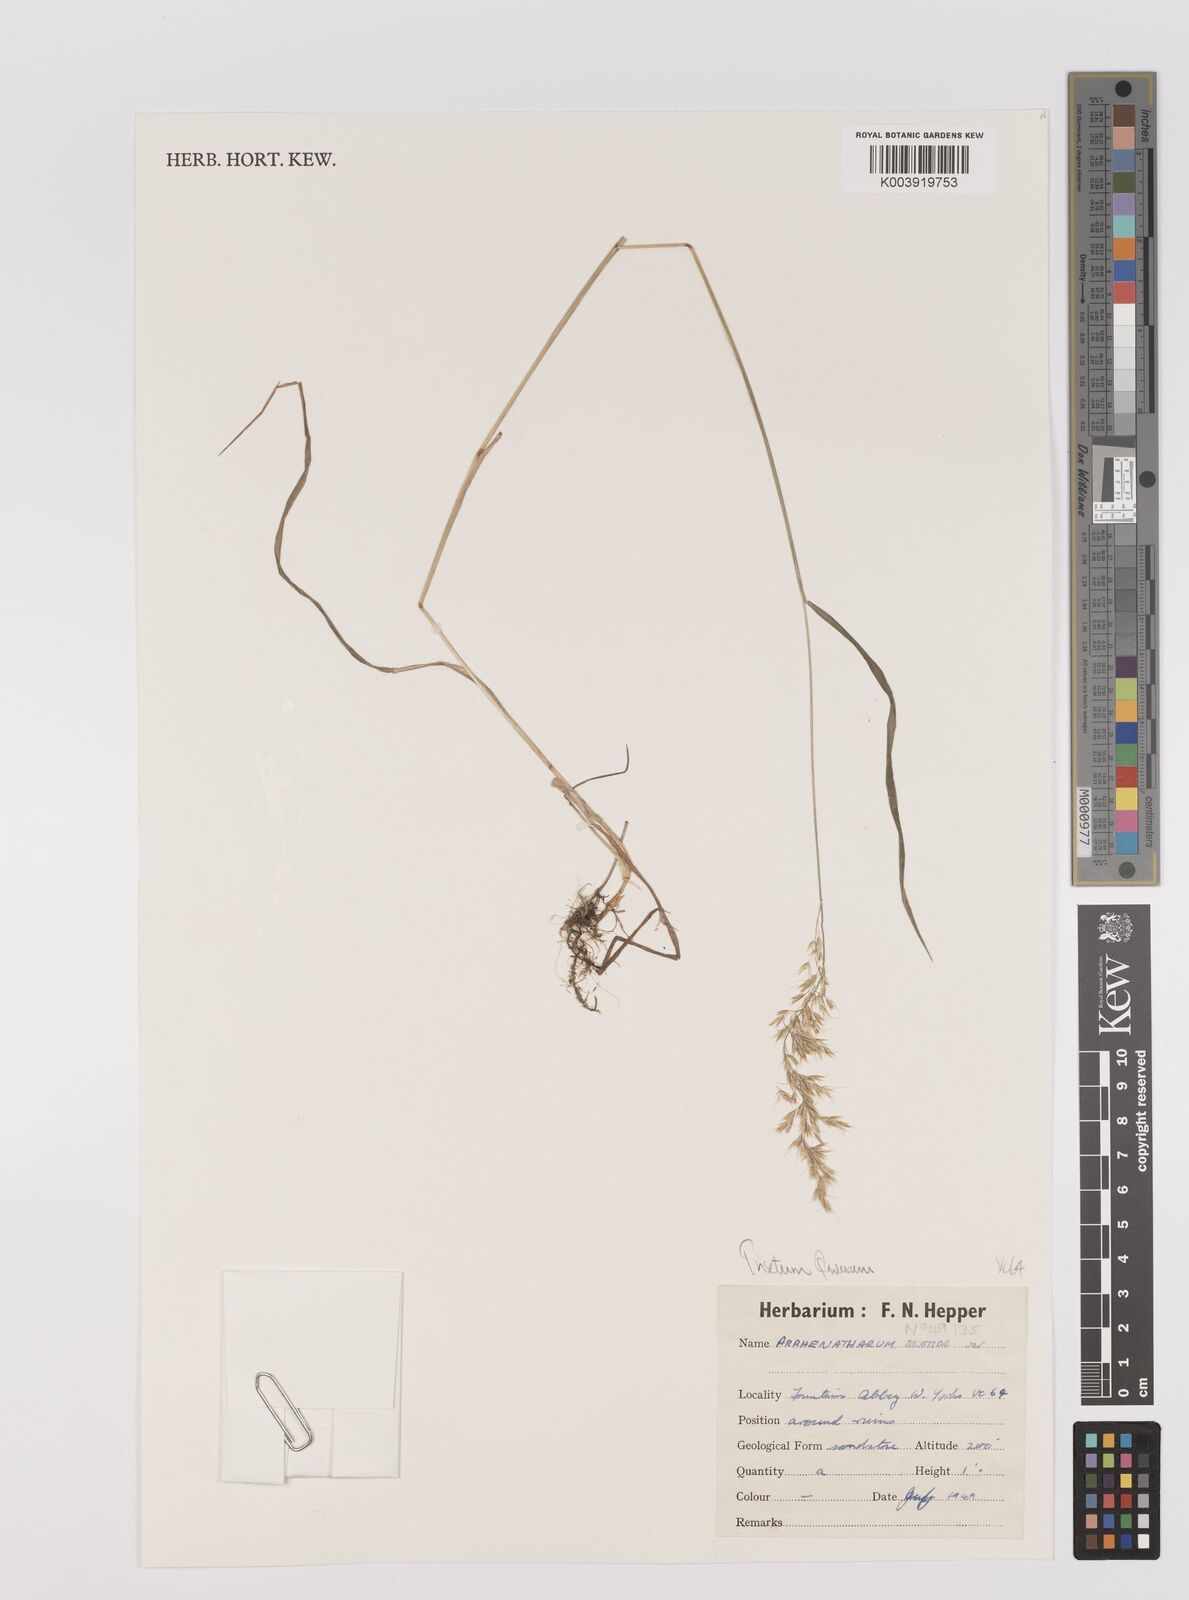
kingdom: Plantae
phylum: Tracheophyta
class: Liliopsida
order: Poales
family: Poaceae
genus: Trisetum
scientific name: Trisetum flavescens
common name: Yellow oat-grass
